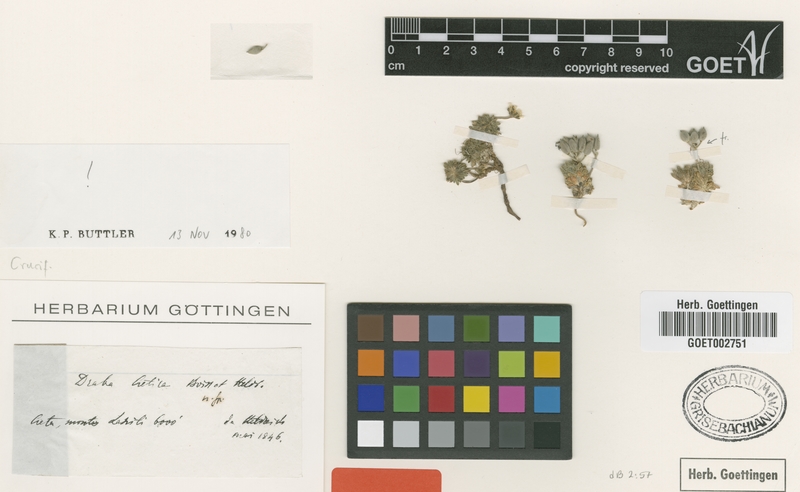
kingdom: Plantae
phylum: Tracheophyta
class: Magnoliopsida
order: Brassicales
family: Brassicaceae
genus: Draba
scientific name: Draba cretica
